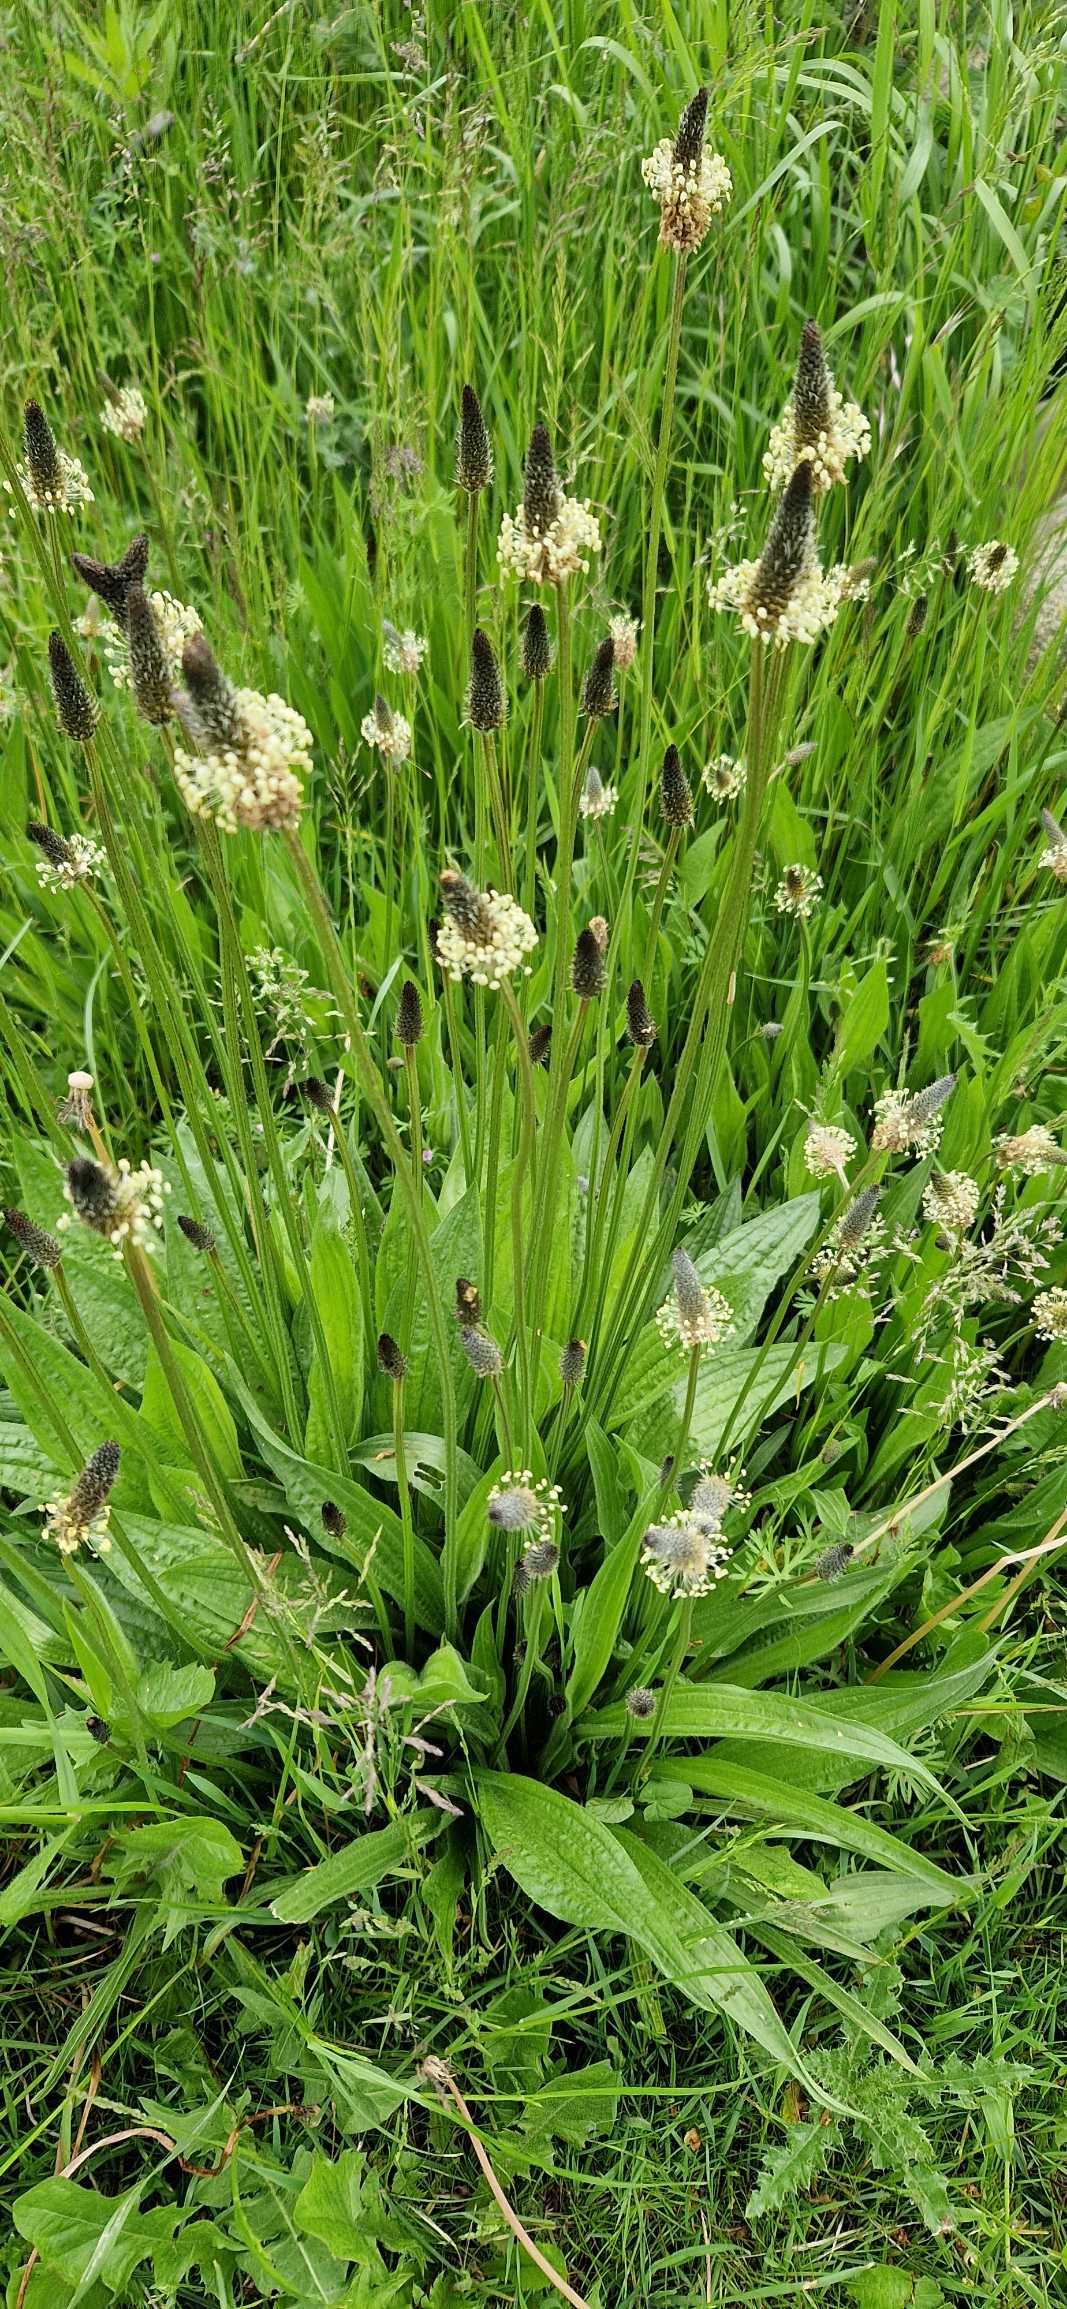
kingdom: Plantae
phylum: Tracheophyta
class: Magnoliopsida
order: Lamiales
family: Plantaginaceae
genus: Plantago
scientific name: Plantago lanceolata
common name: Lancet-vejbred
